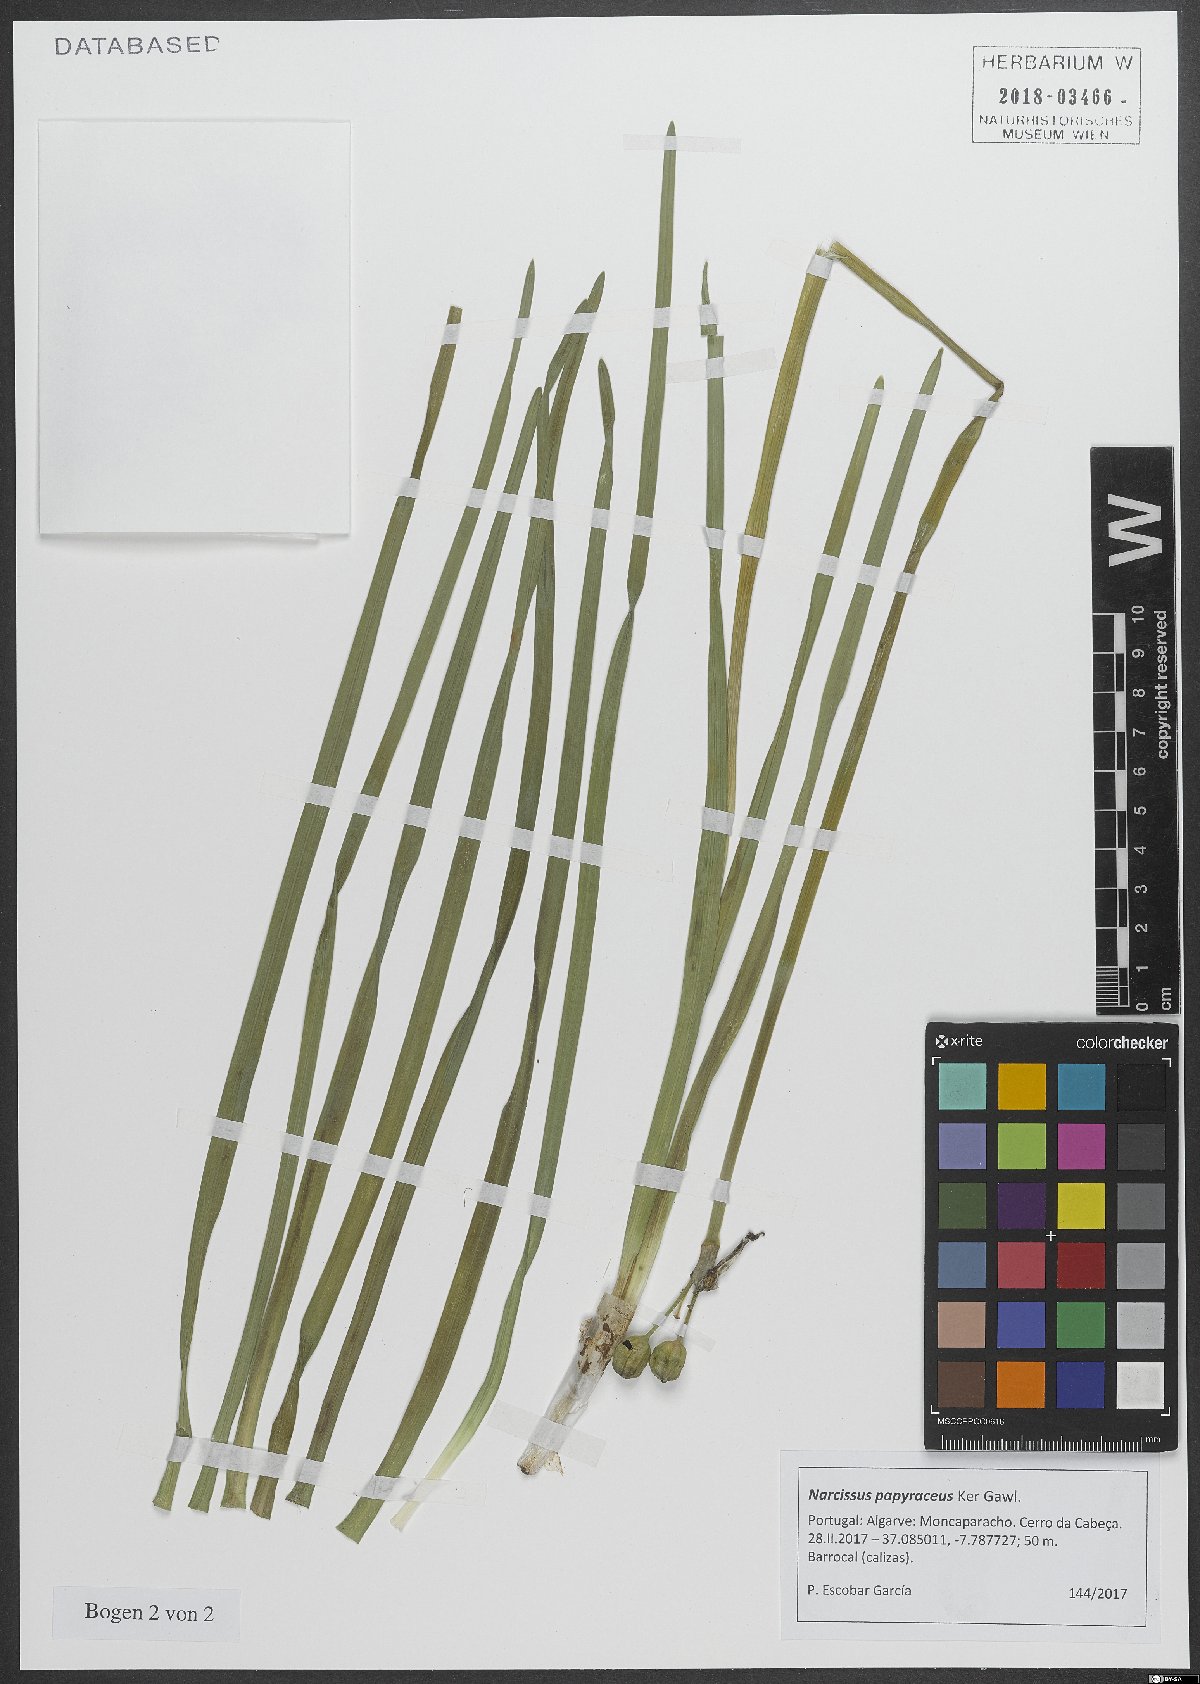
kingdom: Plantae
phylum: Tracheophyta
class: Liliopsida
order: Asparagales
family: Amaryllidaceae
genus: Narcissus
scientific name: Narcissus papyraceus
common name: Paper-white daffodil
